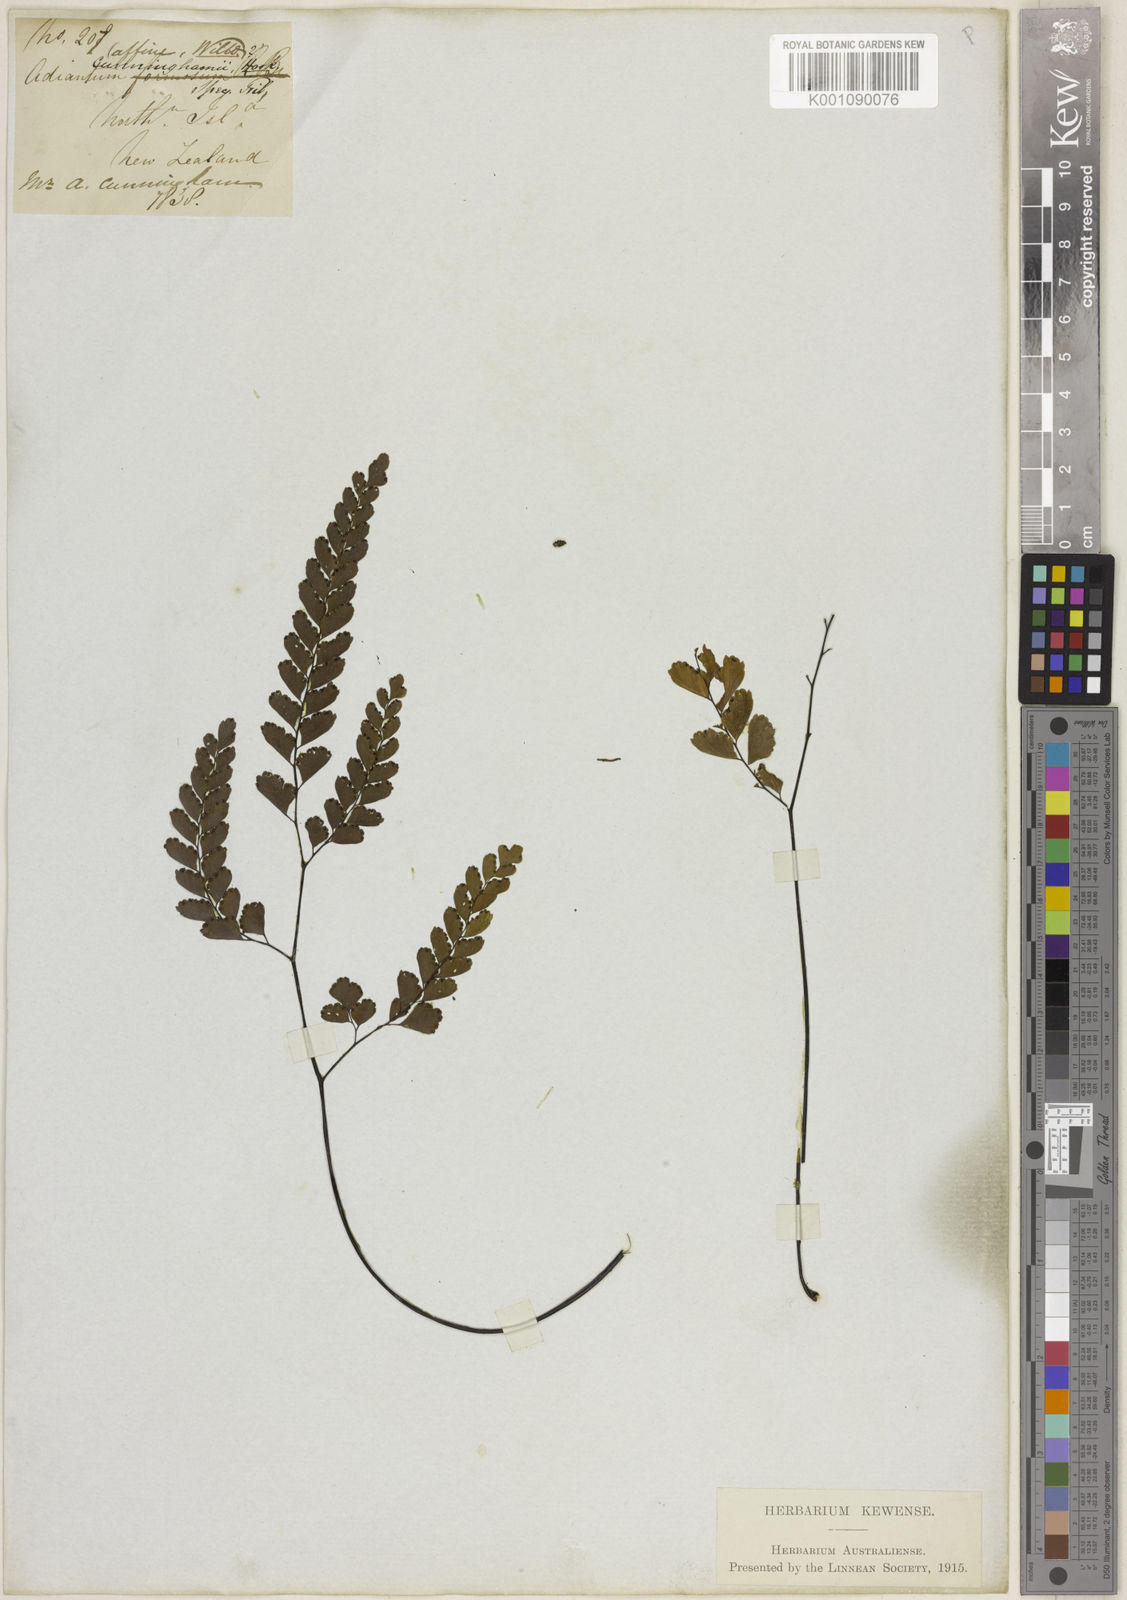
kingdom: Plantae
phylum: Tracheophyta
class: Polypodiopsida
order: Polypodiales
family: Pteridaceae
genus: Adiantum
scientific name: Adiantum cunninghamii
